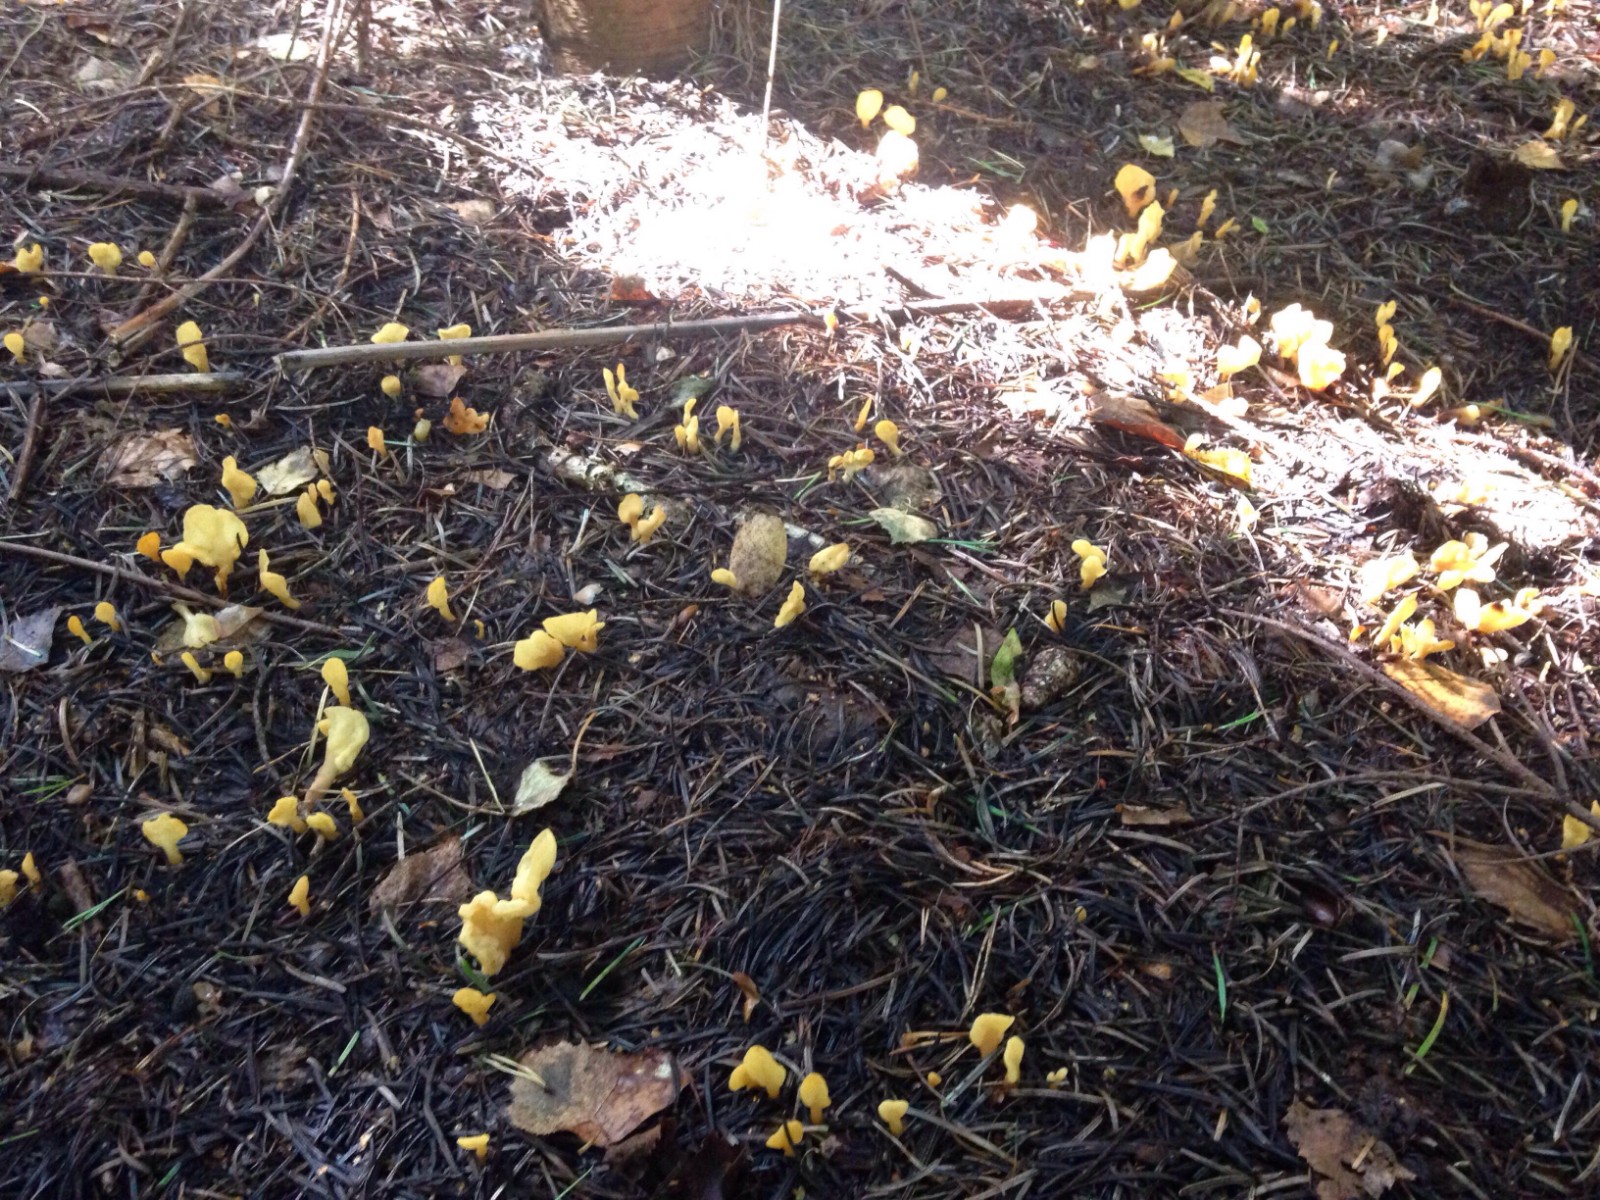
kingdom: Fungi
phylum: Ascomycota
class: Leotiomycetes
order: Rhytismatales
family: Cudoniaceae
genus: Spathularia
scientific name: Spathularia flavida
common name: gul spatelsvamp
